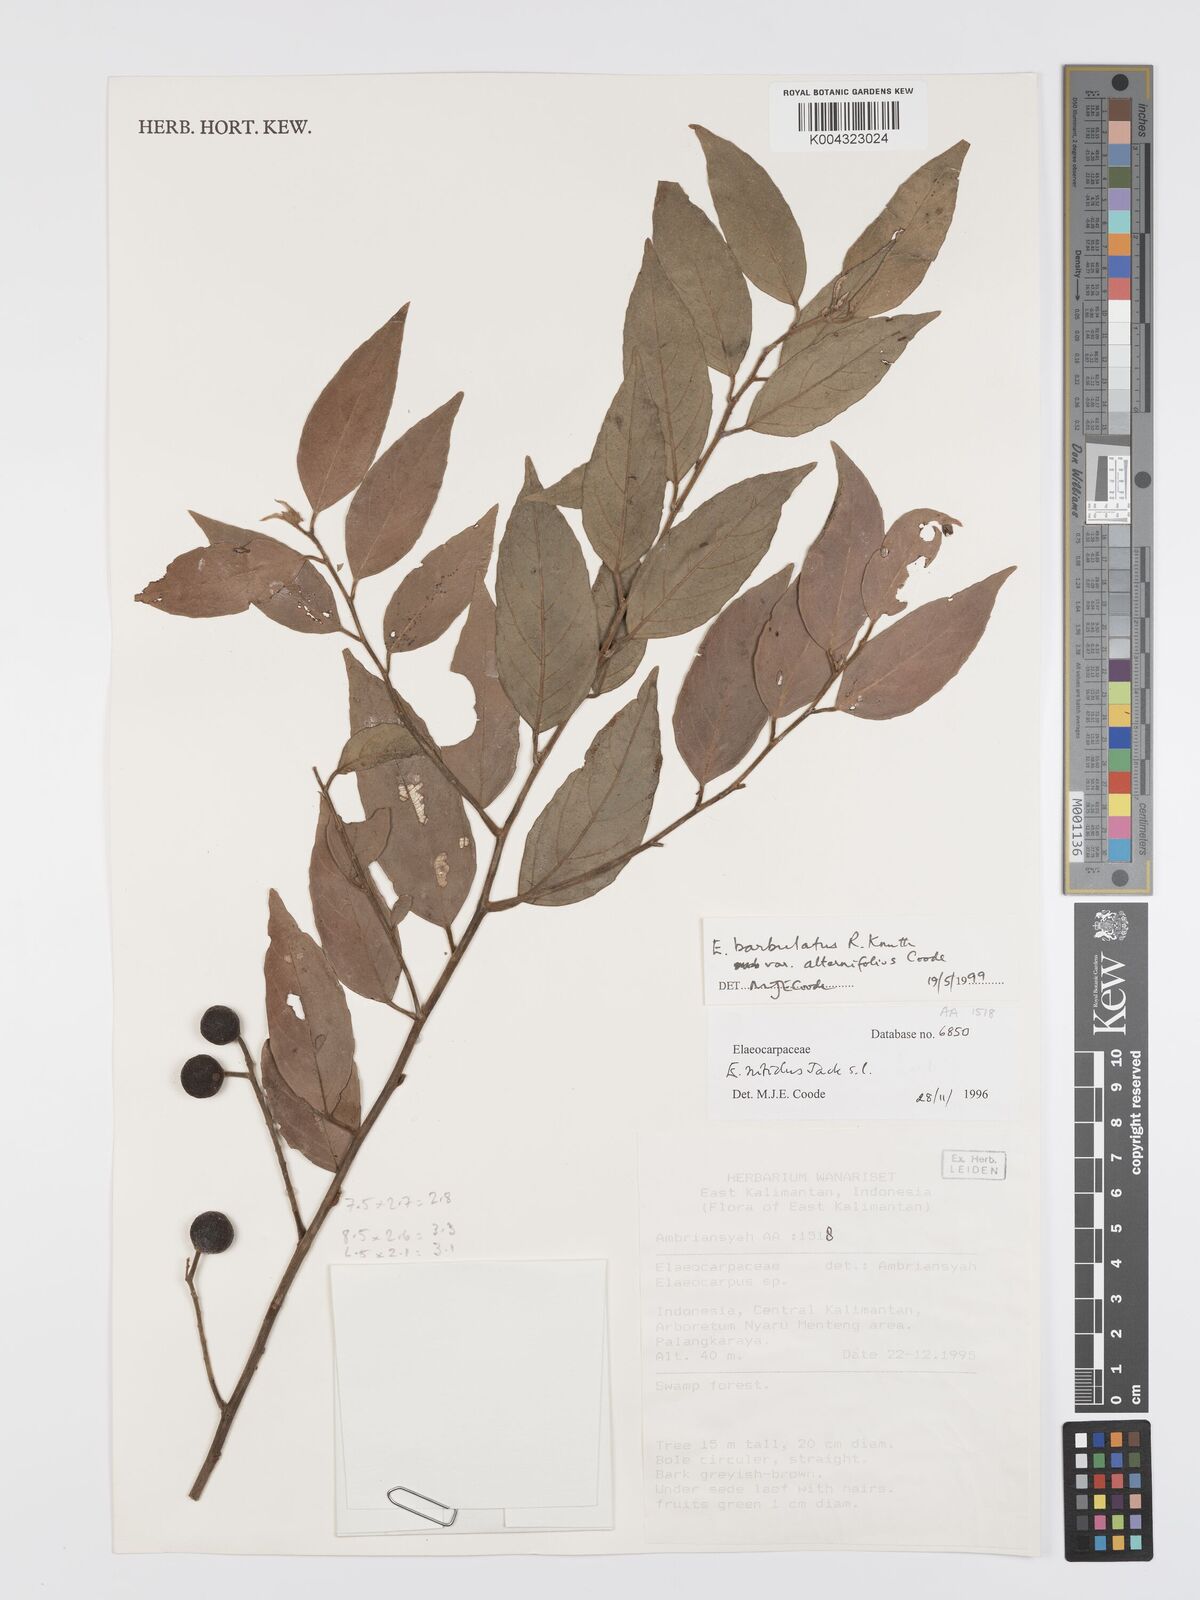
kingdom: Plantae
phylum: Tracheophyta
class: Magnoliopsida
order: Oxalidales
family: Elaeocarpaceae
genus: Elaeocarpus
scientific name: Elaeocarpus barbulatus
